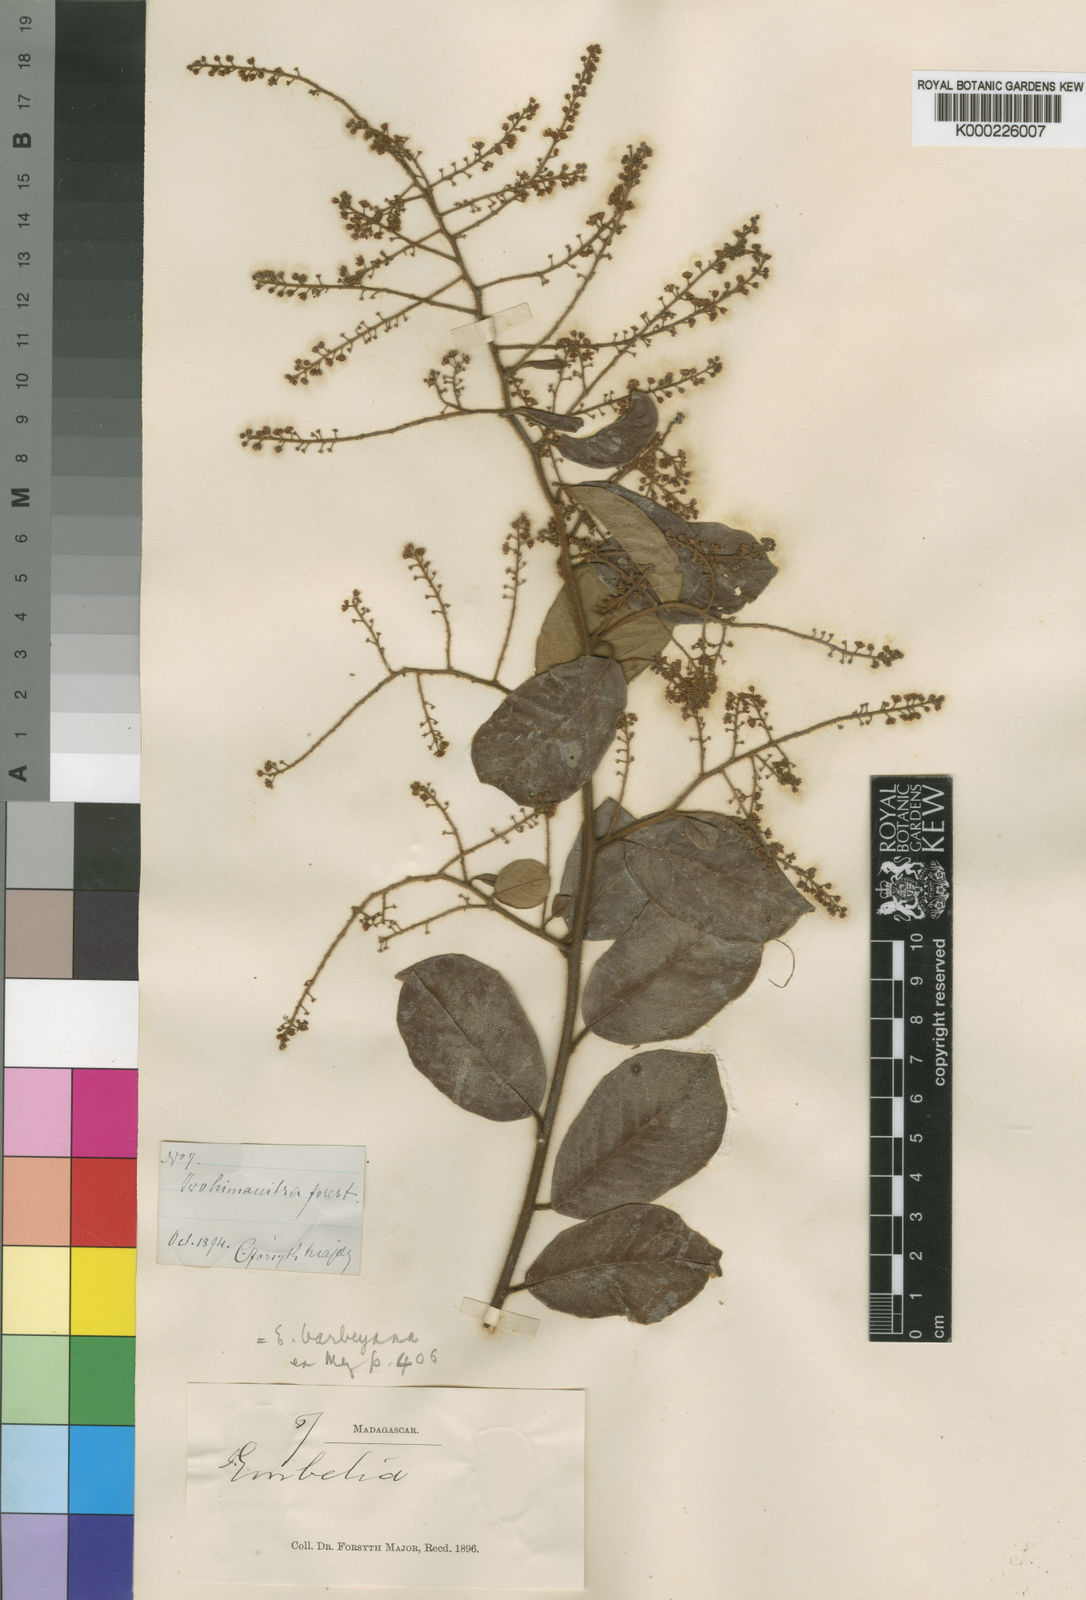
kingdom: Plantae
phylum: Tracheophyta
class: Magnoliopsida
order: Ericales
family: Primulaceae
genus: Embelia
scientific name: Embelia madagascariensis
